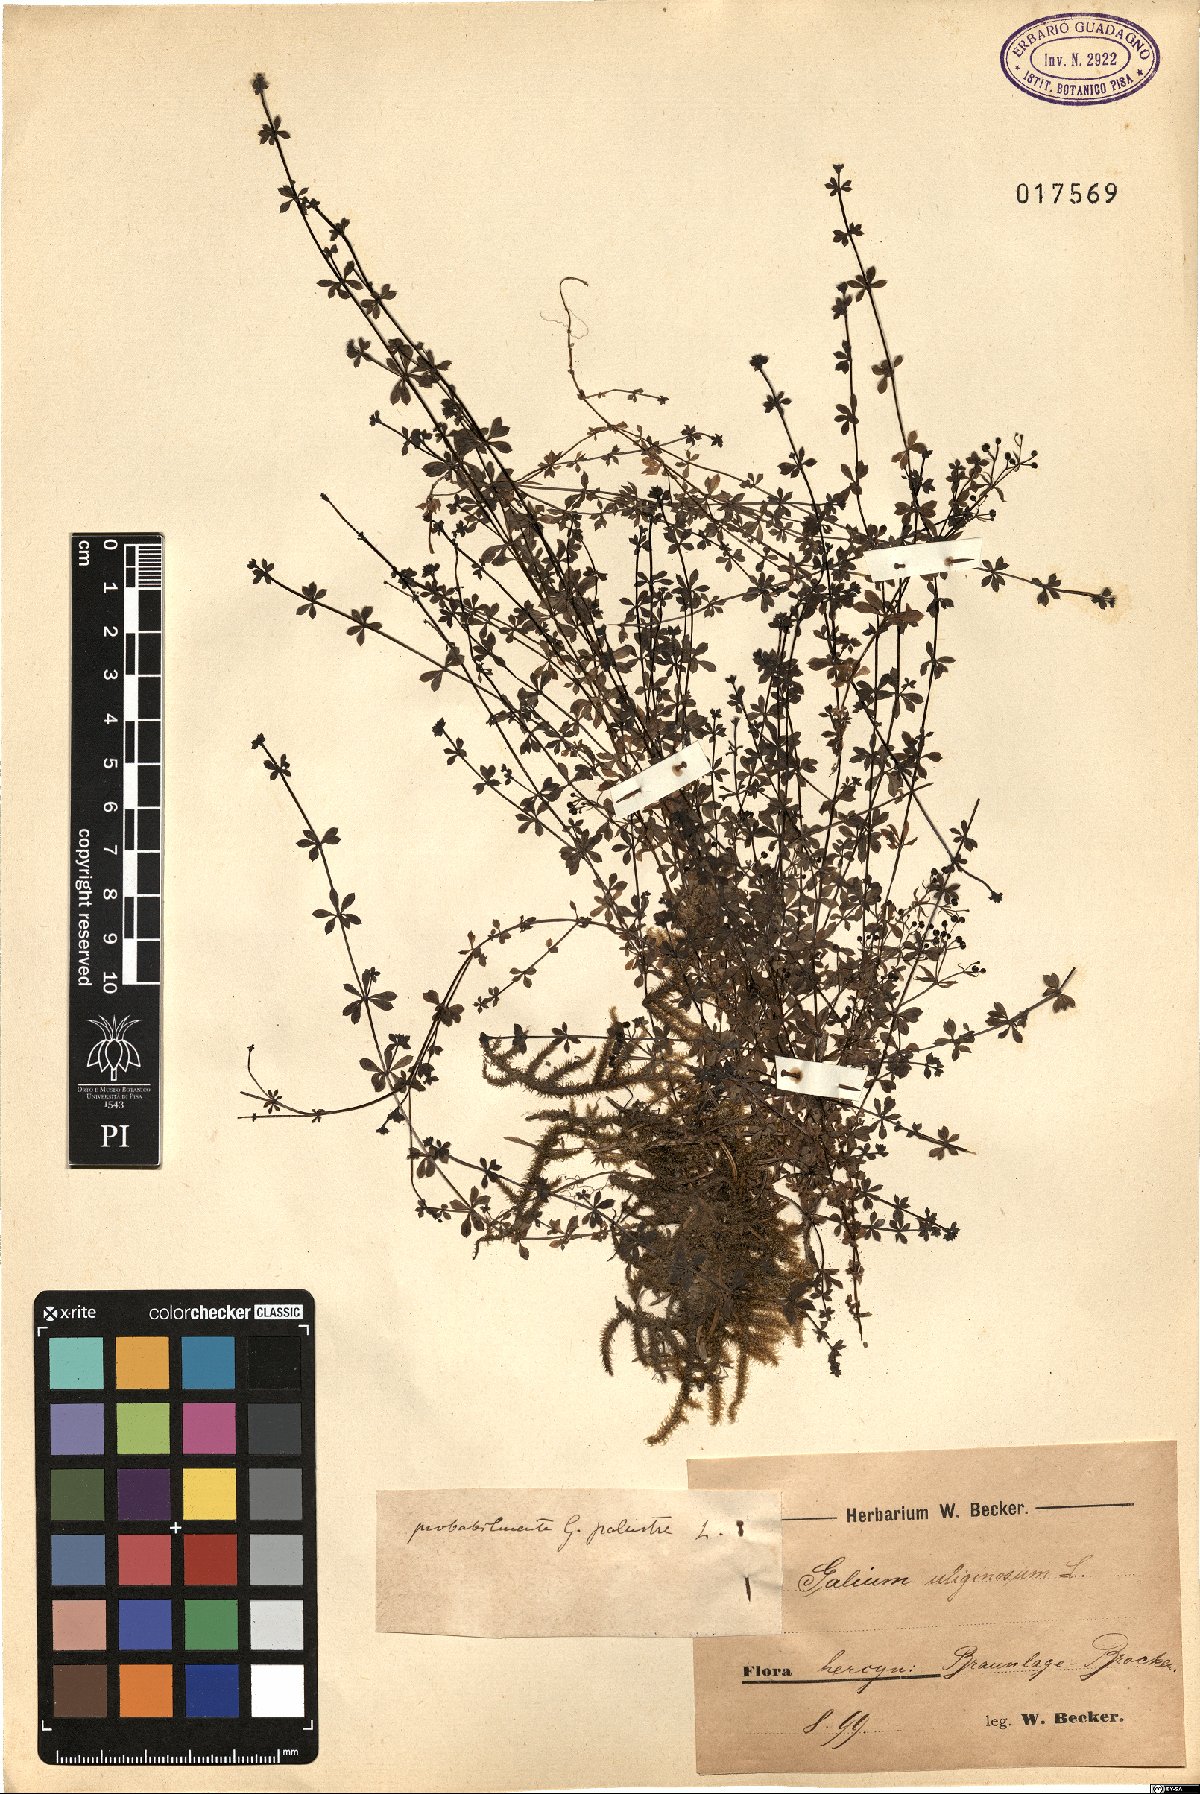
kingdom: Plantae
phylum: Tracheophyta
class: Magnoliopsida
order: Gentianales
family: Rubiaceae
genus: Galium
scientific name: Galium palustre
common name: Common marsh-bedstraw
